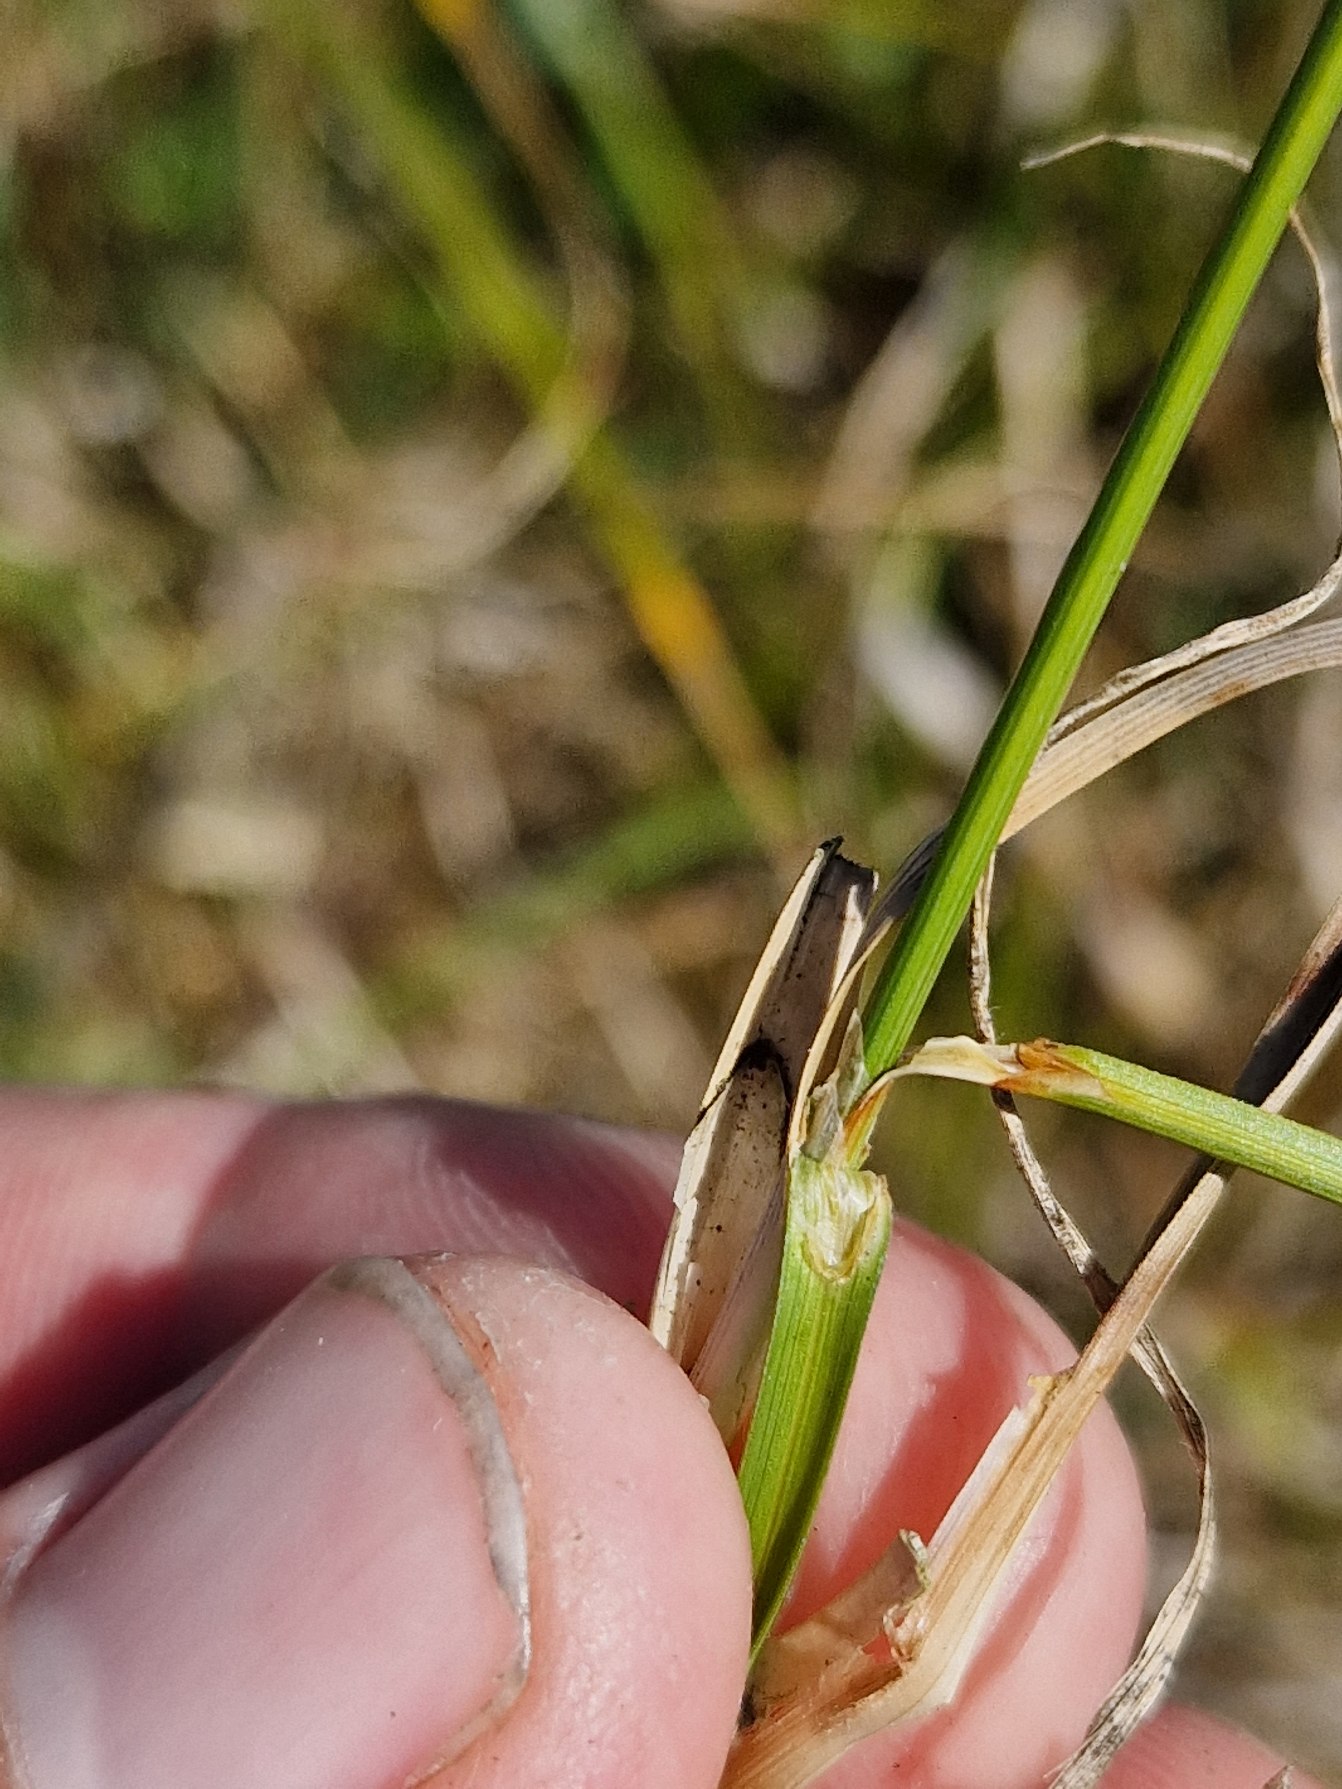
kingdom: Plantae
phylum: Tracheophyta
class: Liliopsida
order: Poales
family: Cyperaceae
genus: Carex
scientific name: Carex arenaria
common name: Sand-star
